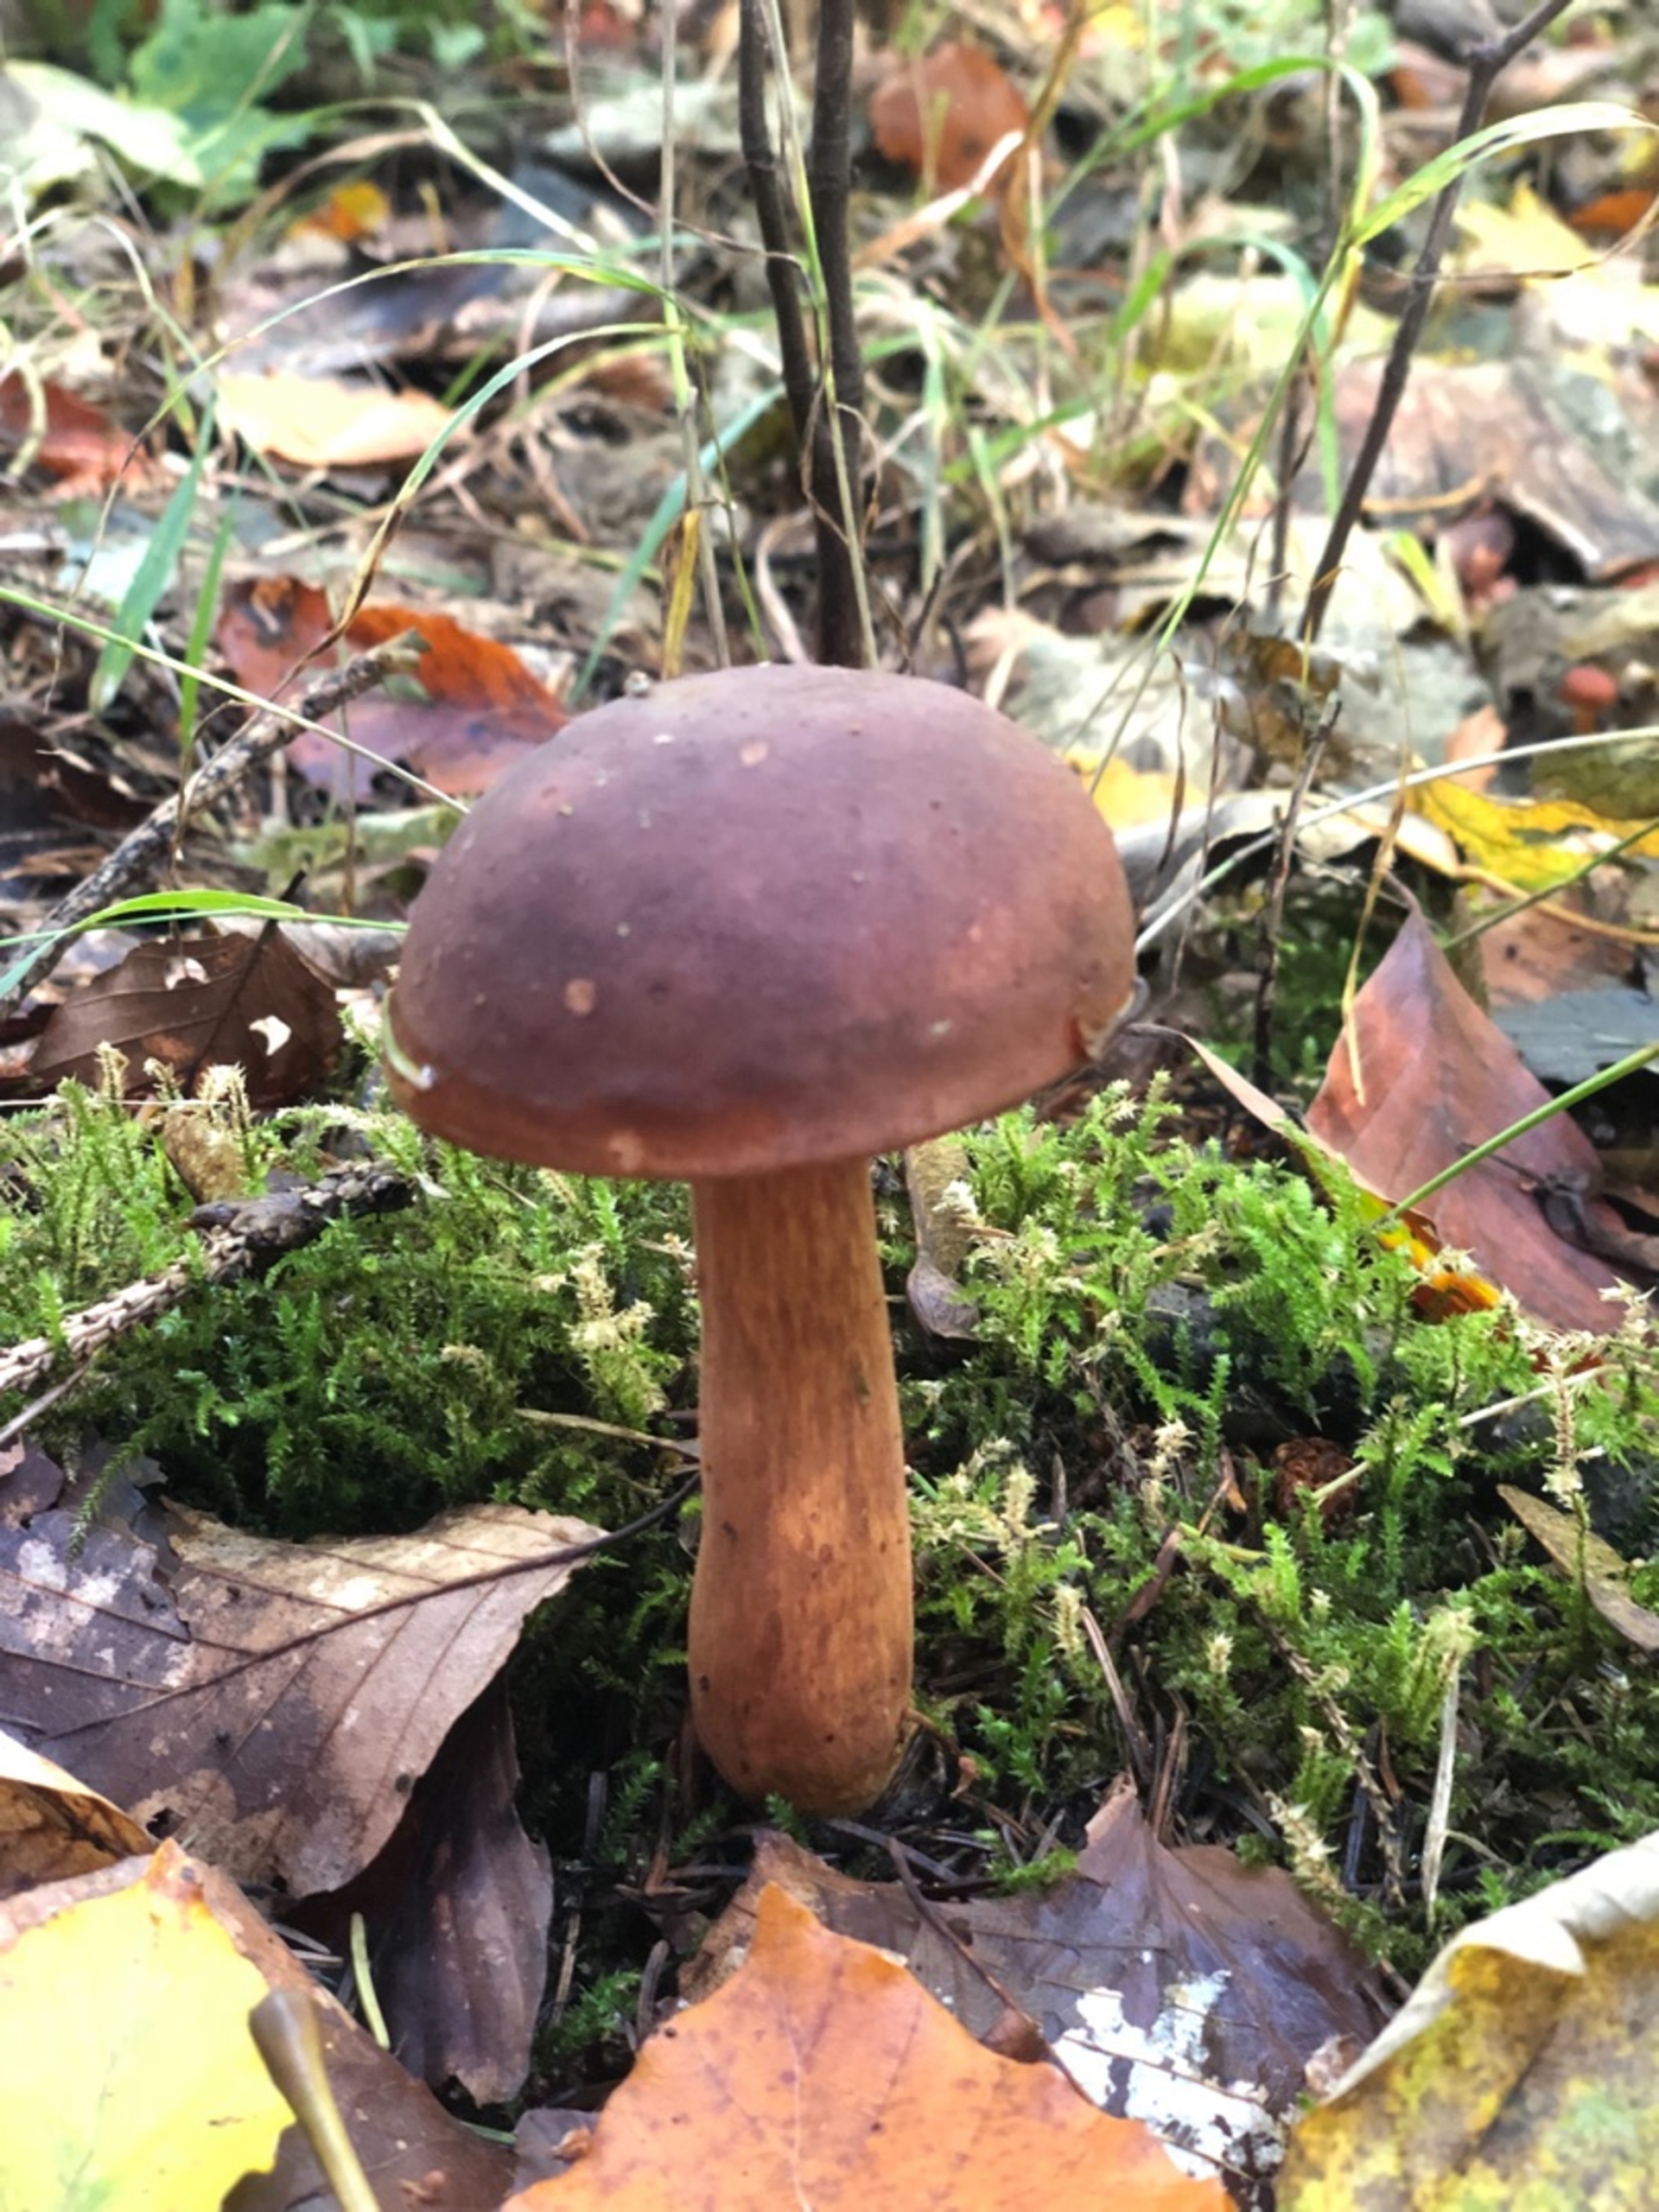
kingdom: Fungi
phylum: Basidiomycota
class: Agaricomycetes
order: Boletales
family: Boletaceae
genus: Imleria
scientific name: Imleria badia
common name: Brunstokket rørhat
